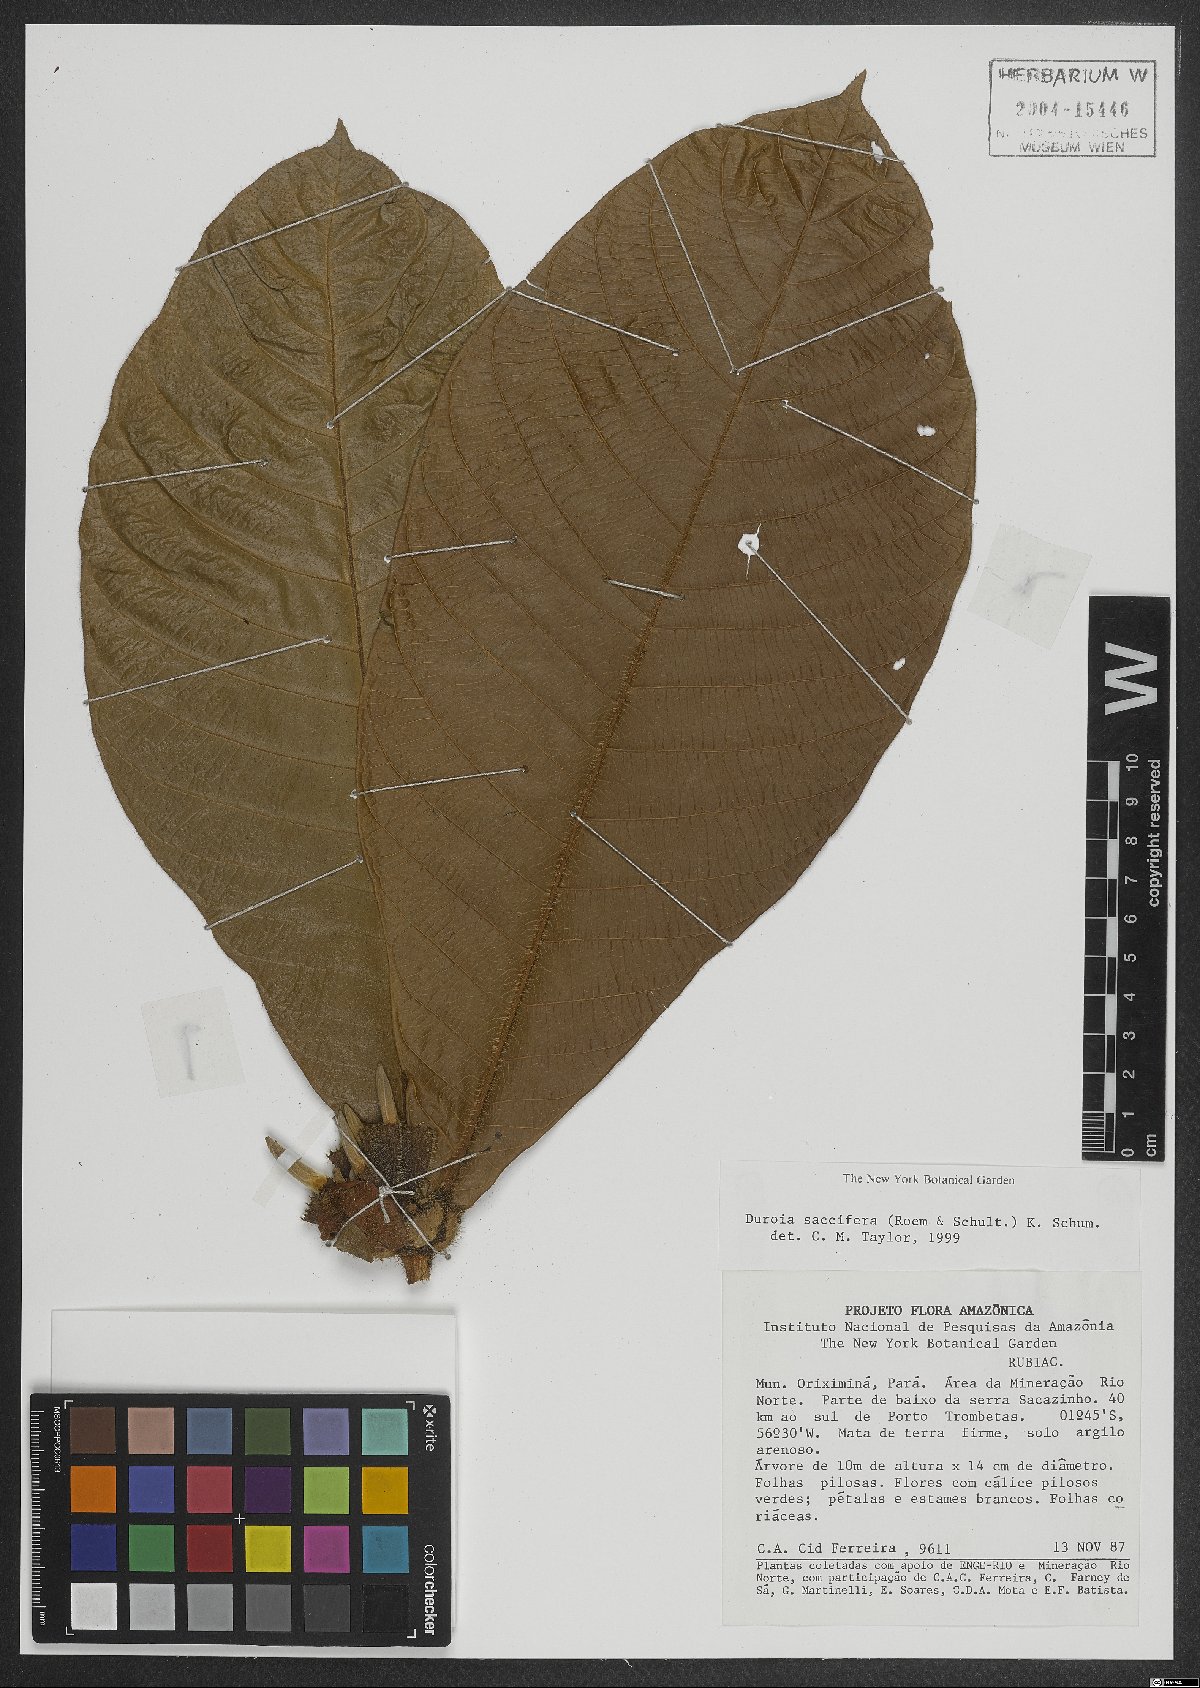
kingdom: Plantae
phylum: Tracheophyta
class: Magnoliopsida
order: Gentianales
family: Rubiaceae
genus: Duroia
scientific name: Duroia saccifera
